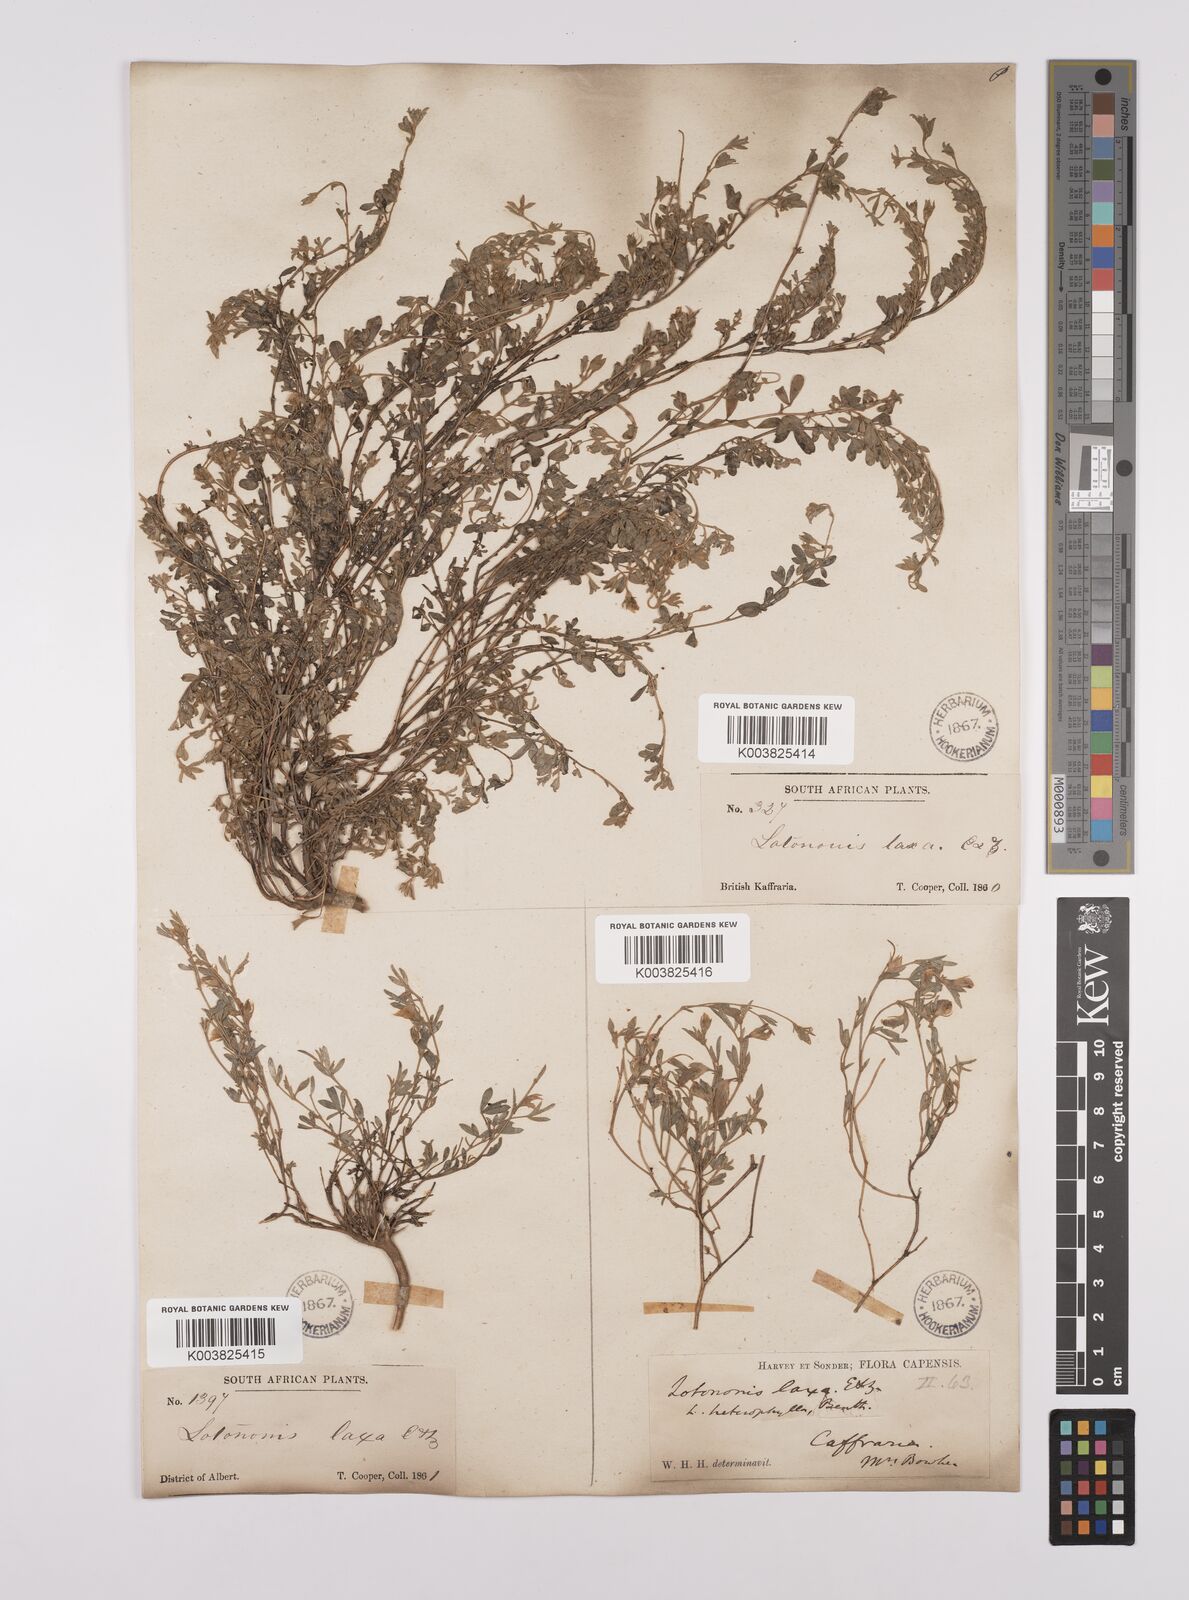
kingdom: Plantae
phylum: Tracheophyta
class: Magnoliopsida
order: Fabales
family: Fabaceae
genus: Lotononis
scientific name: Lotononis laxa
